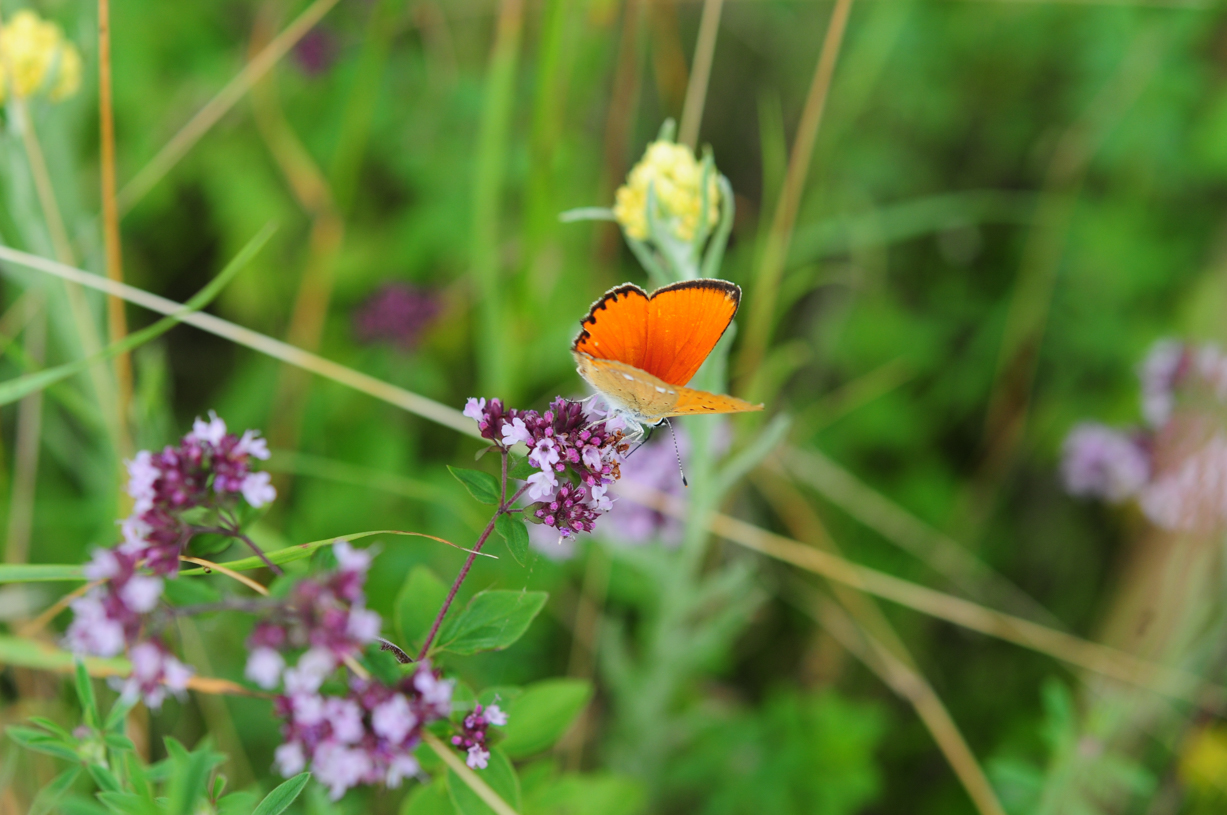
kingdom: Animalia
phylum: Arthropoda
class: Insecta
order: Lepidoptera
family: Lycaenidae
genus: Lycaena
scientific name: Lycaena virgaureae
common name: Scarce copper
